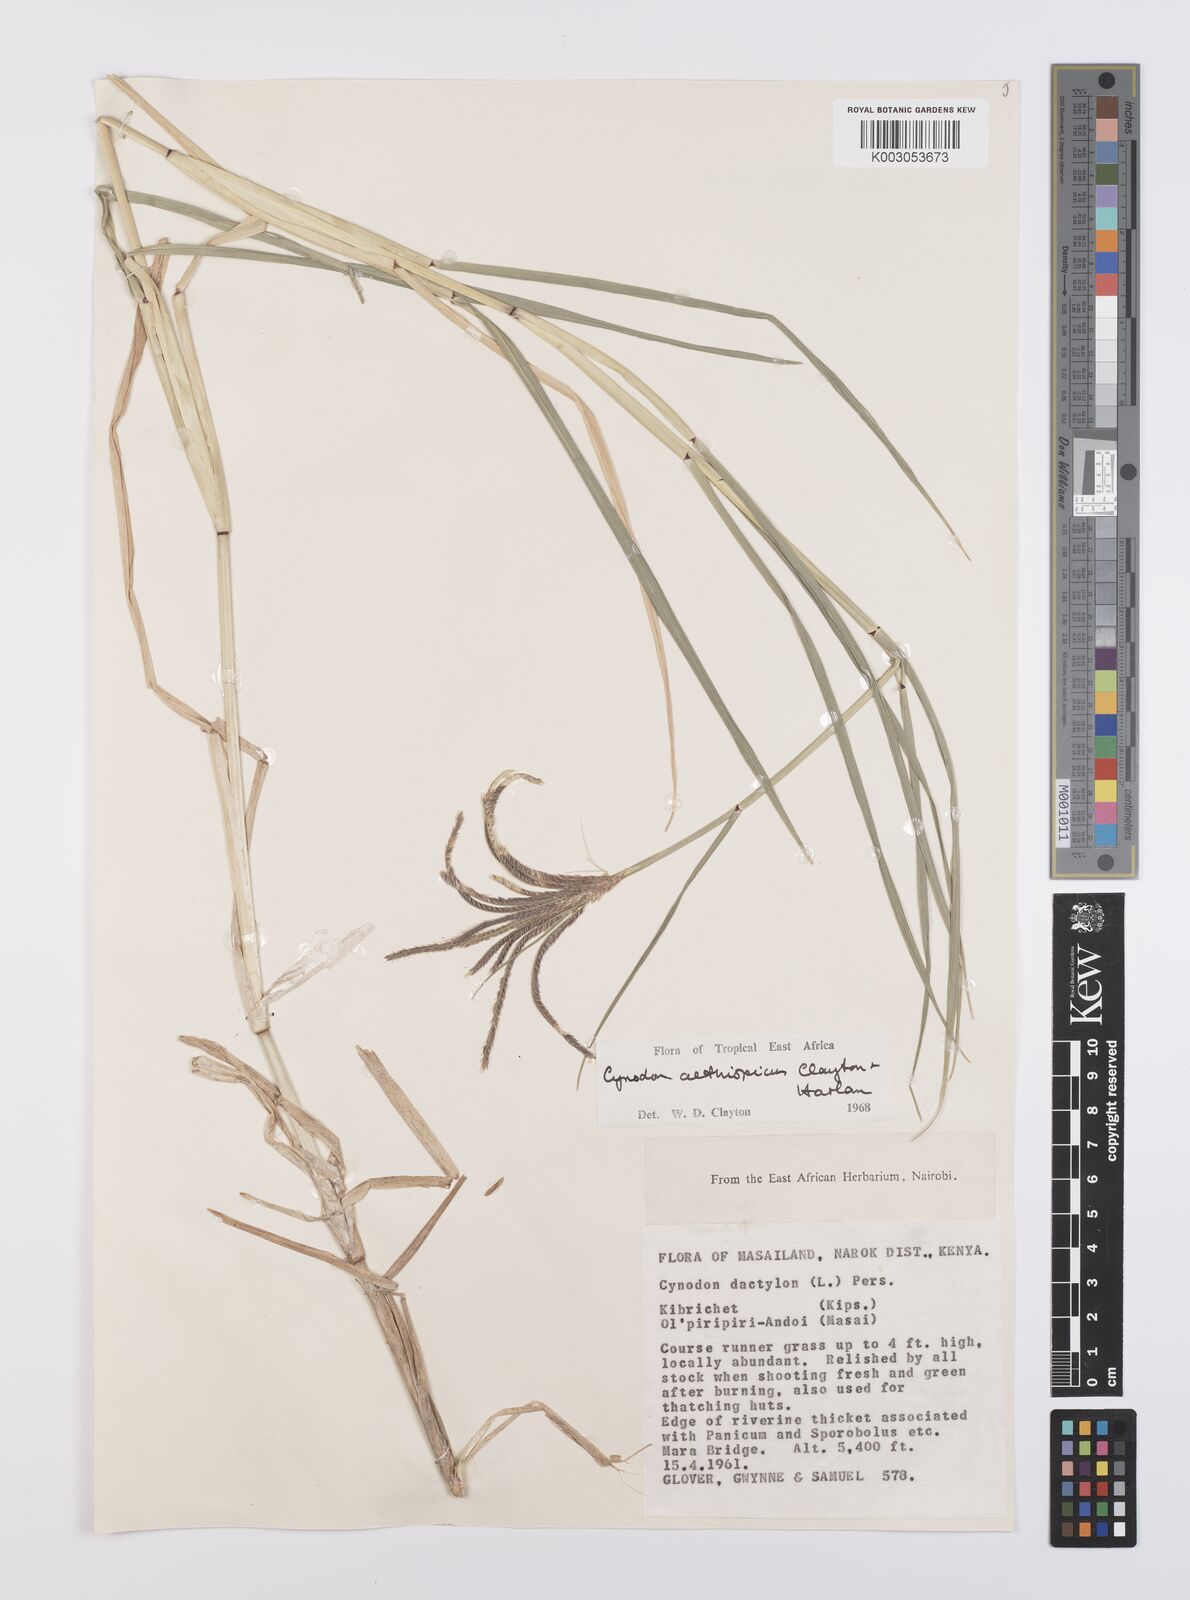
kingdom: Plantae
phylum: Tracheophyta
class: Liliopsida
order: Poales
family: Poaceae
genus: Cynodon
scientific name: Cynodon aethiopicus
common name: Ethiopian dogstooth grass
